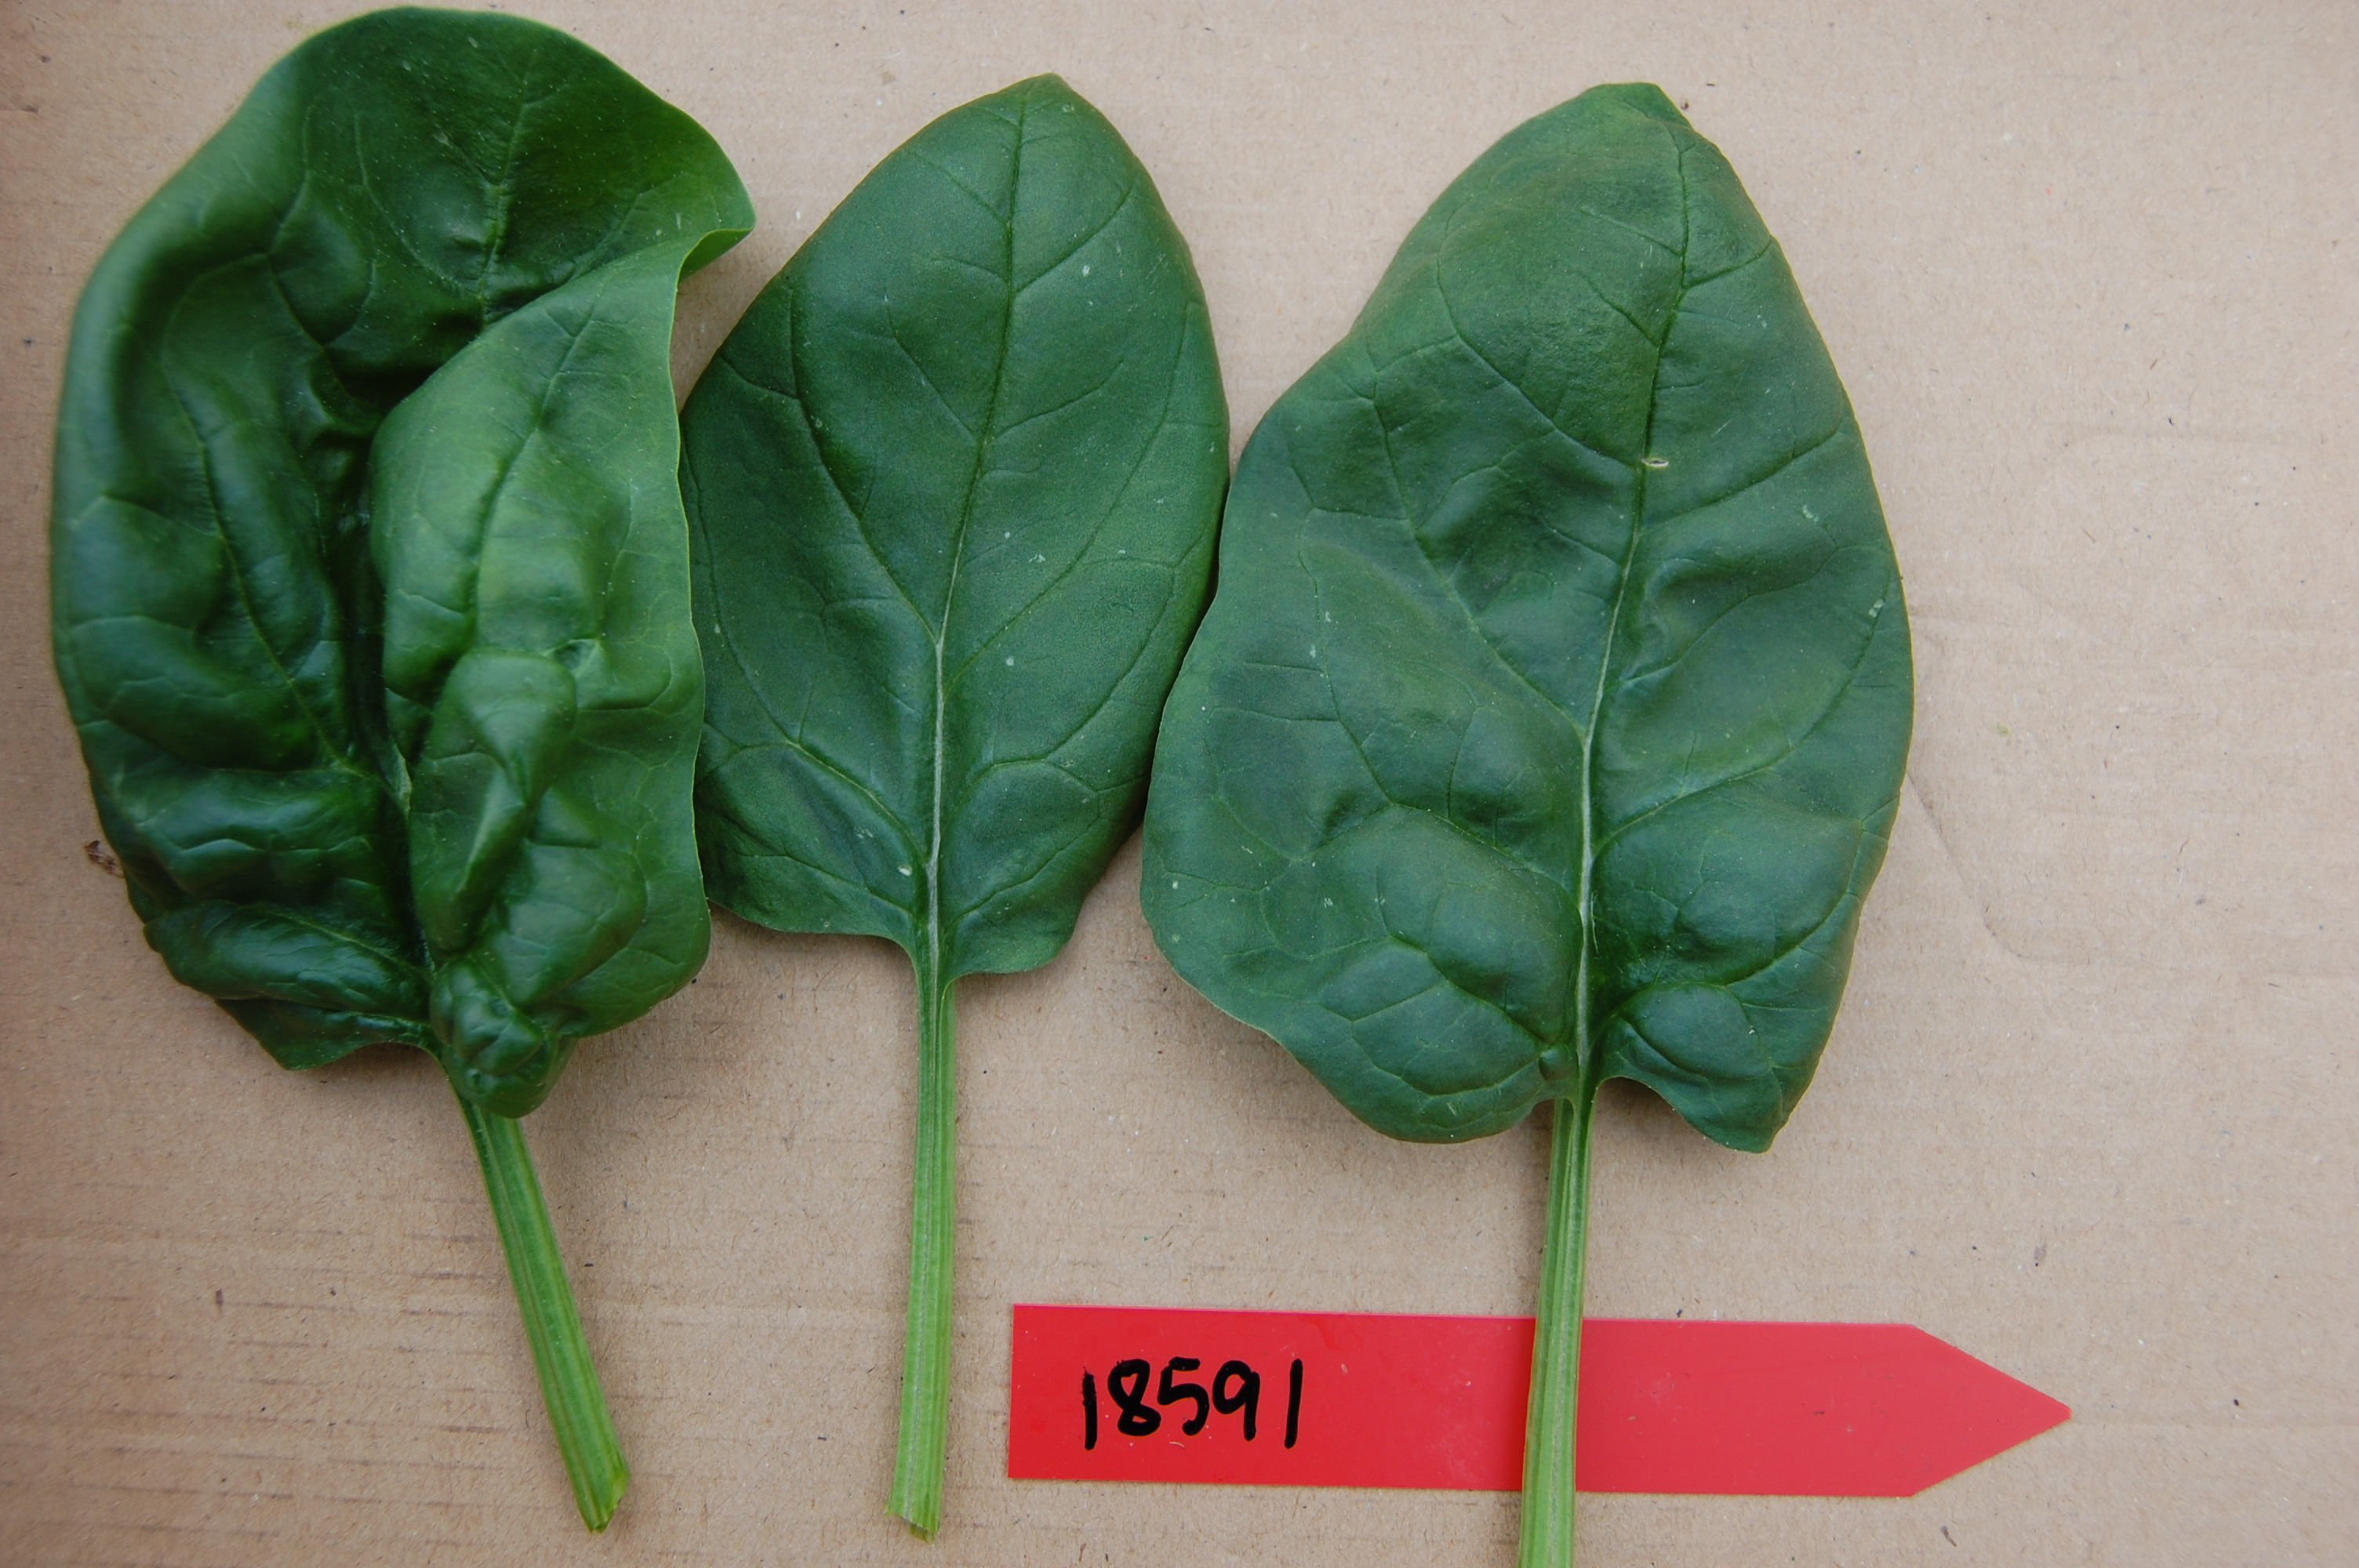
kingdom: Plantae
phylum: Tracheophyta
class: Magnoliopsida
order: Caryophyllales
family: Amaranthaceae
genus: Spinacia
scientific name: Spinacia oleracea
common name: Spinach
